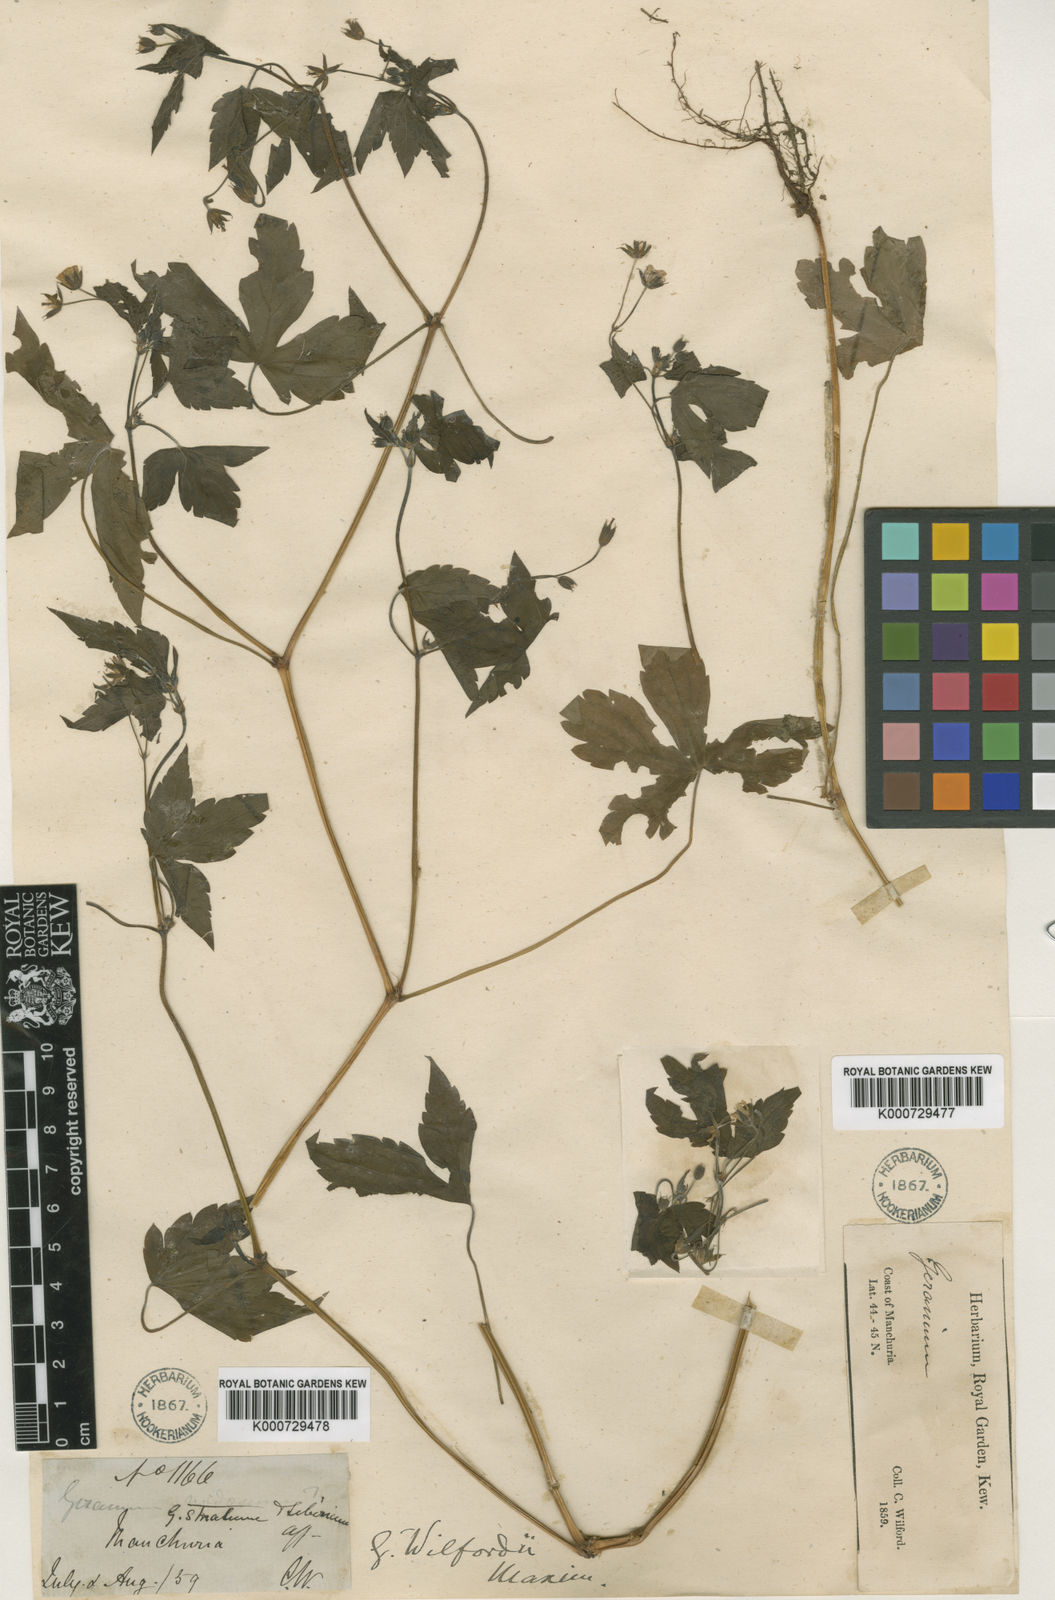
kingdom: Plantae
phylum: Tracheophyta
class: Magnoliopsida
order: Geraniales
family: Geraniaceae
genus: Geranium
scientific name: Geranium nodosum
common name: Knotted crane's-bill
